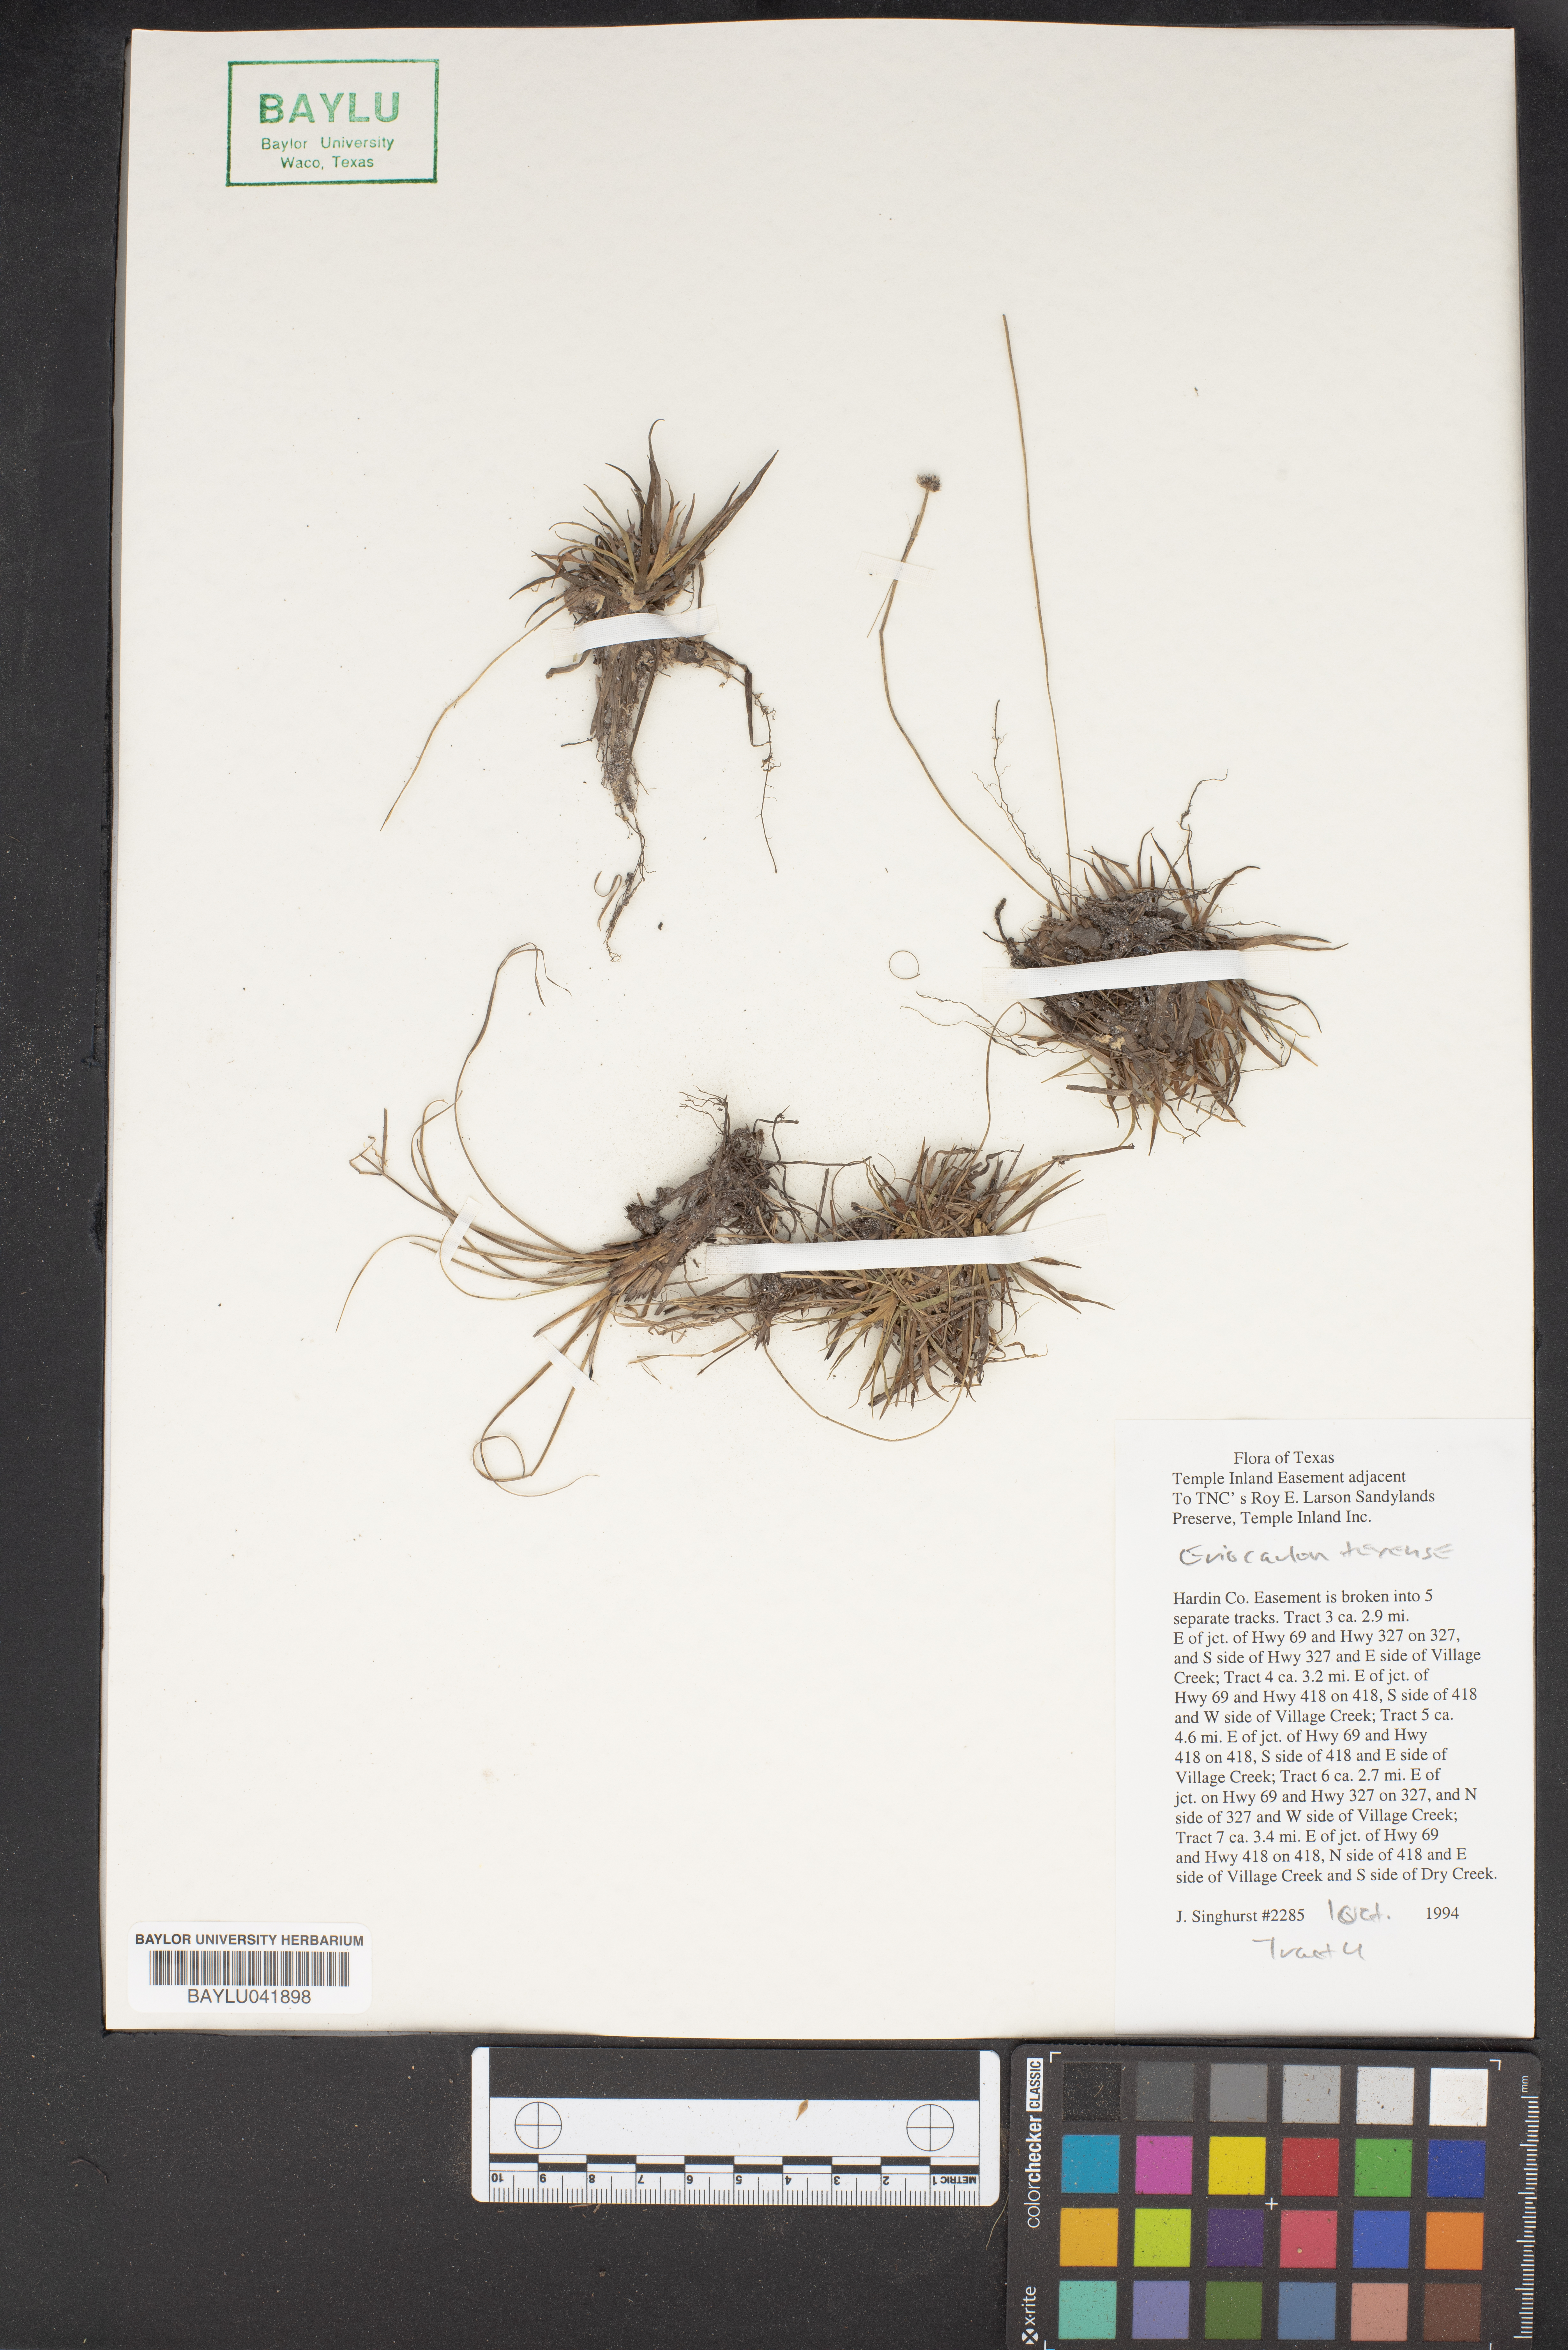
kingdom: Plantae
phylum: Tracheophyta
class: Liliopsida
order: Poales
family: Eriocaulaceae
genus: Eriocaulon
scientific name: Eriocaulon texense
